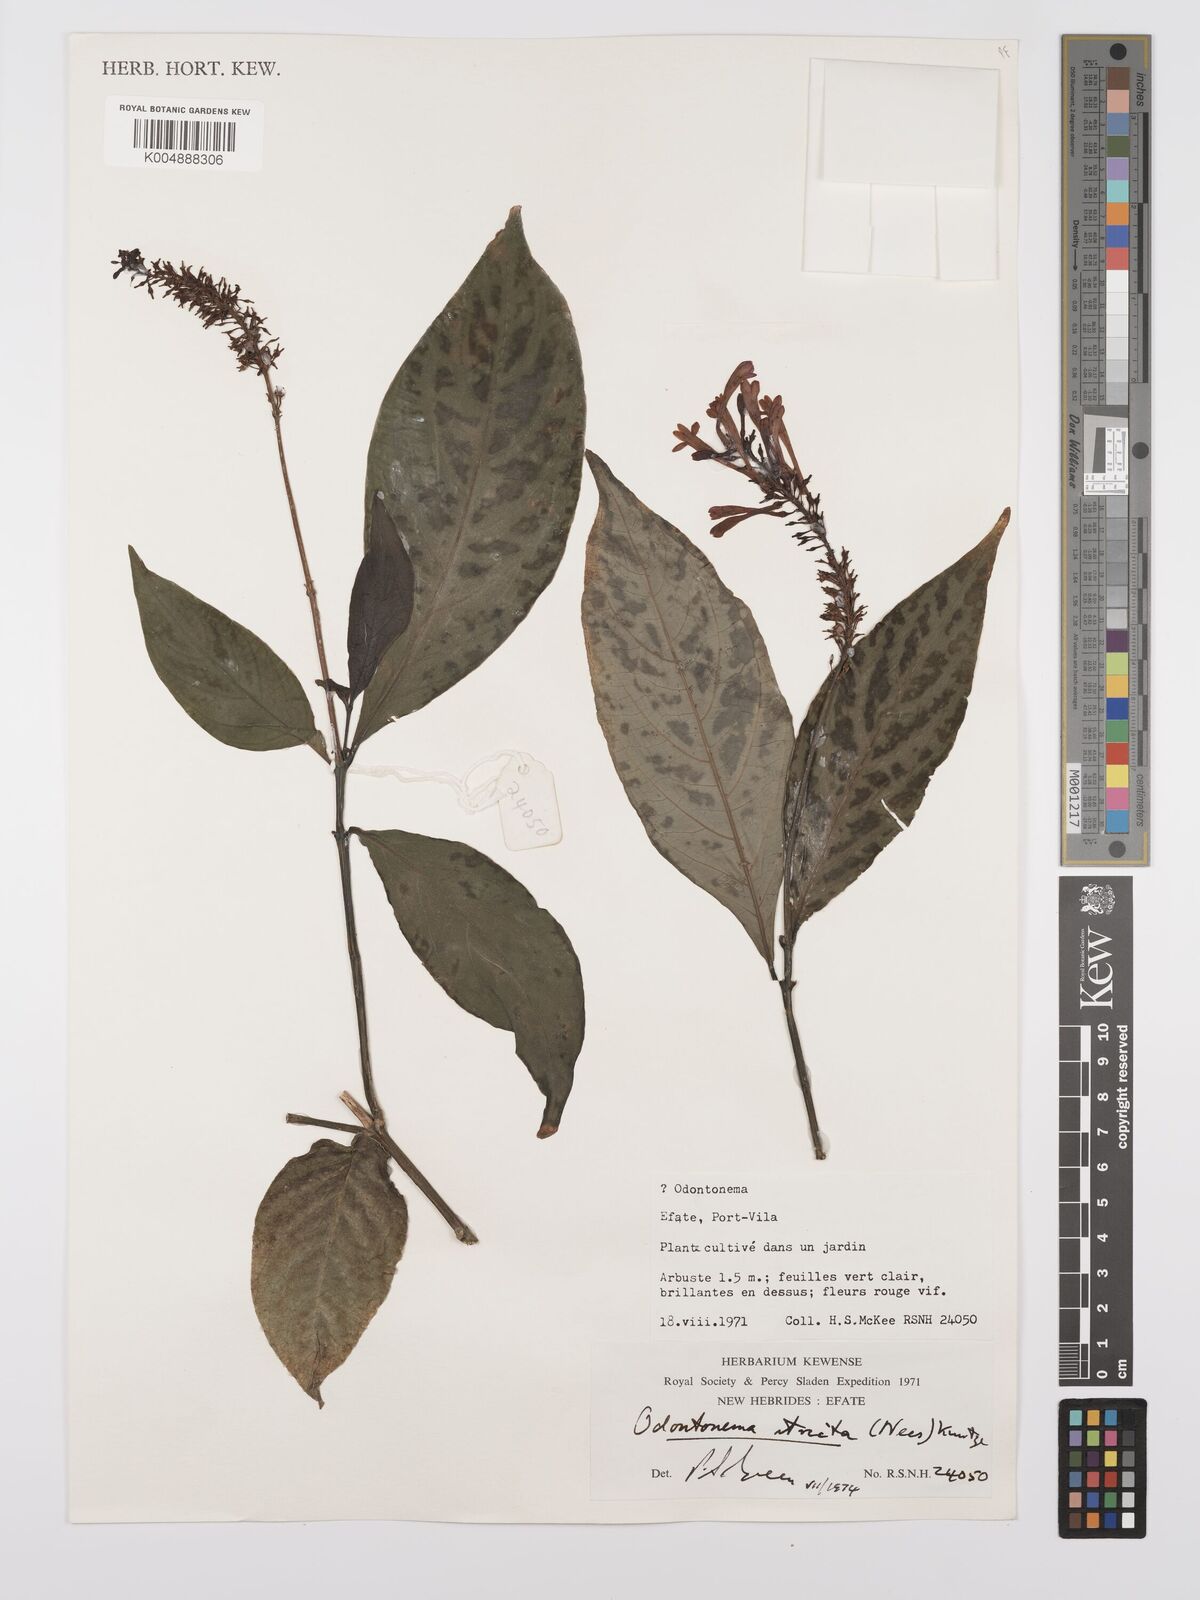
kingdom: Plantae
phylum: Tracheophyta
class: Magnoliopsida
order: Lamiales
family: Acanthaceae
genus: Odontonema
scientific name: Odontonema cuspidatum
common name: Mottled toothedthread
